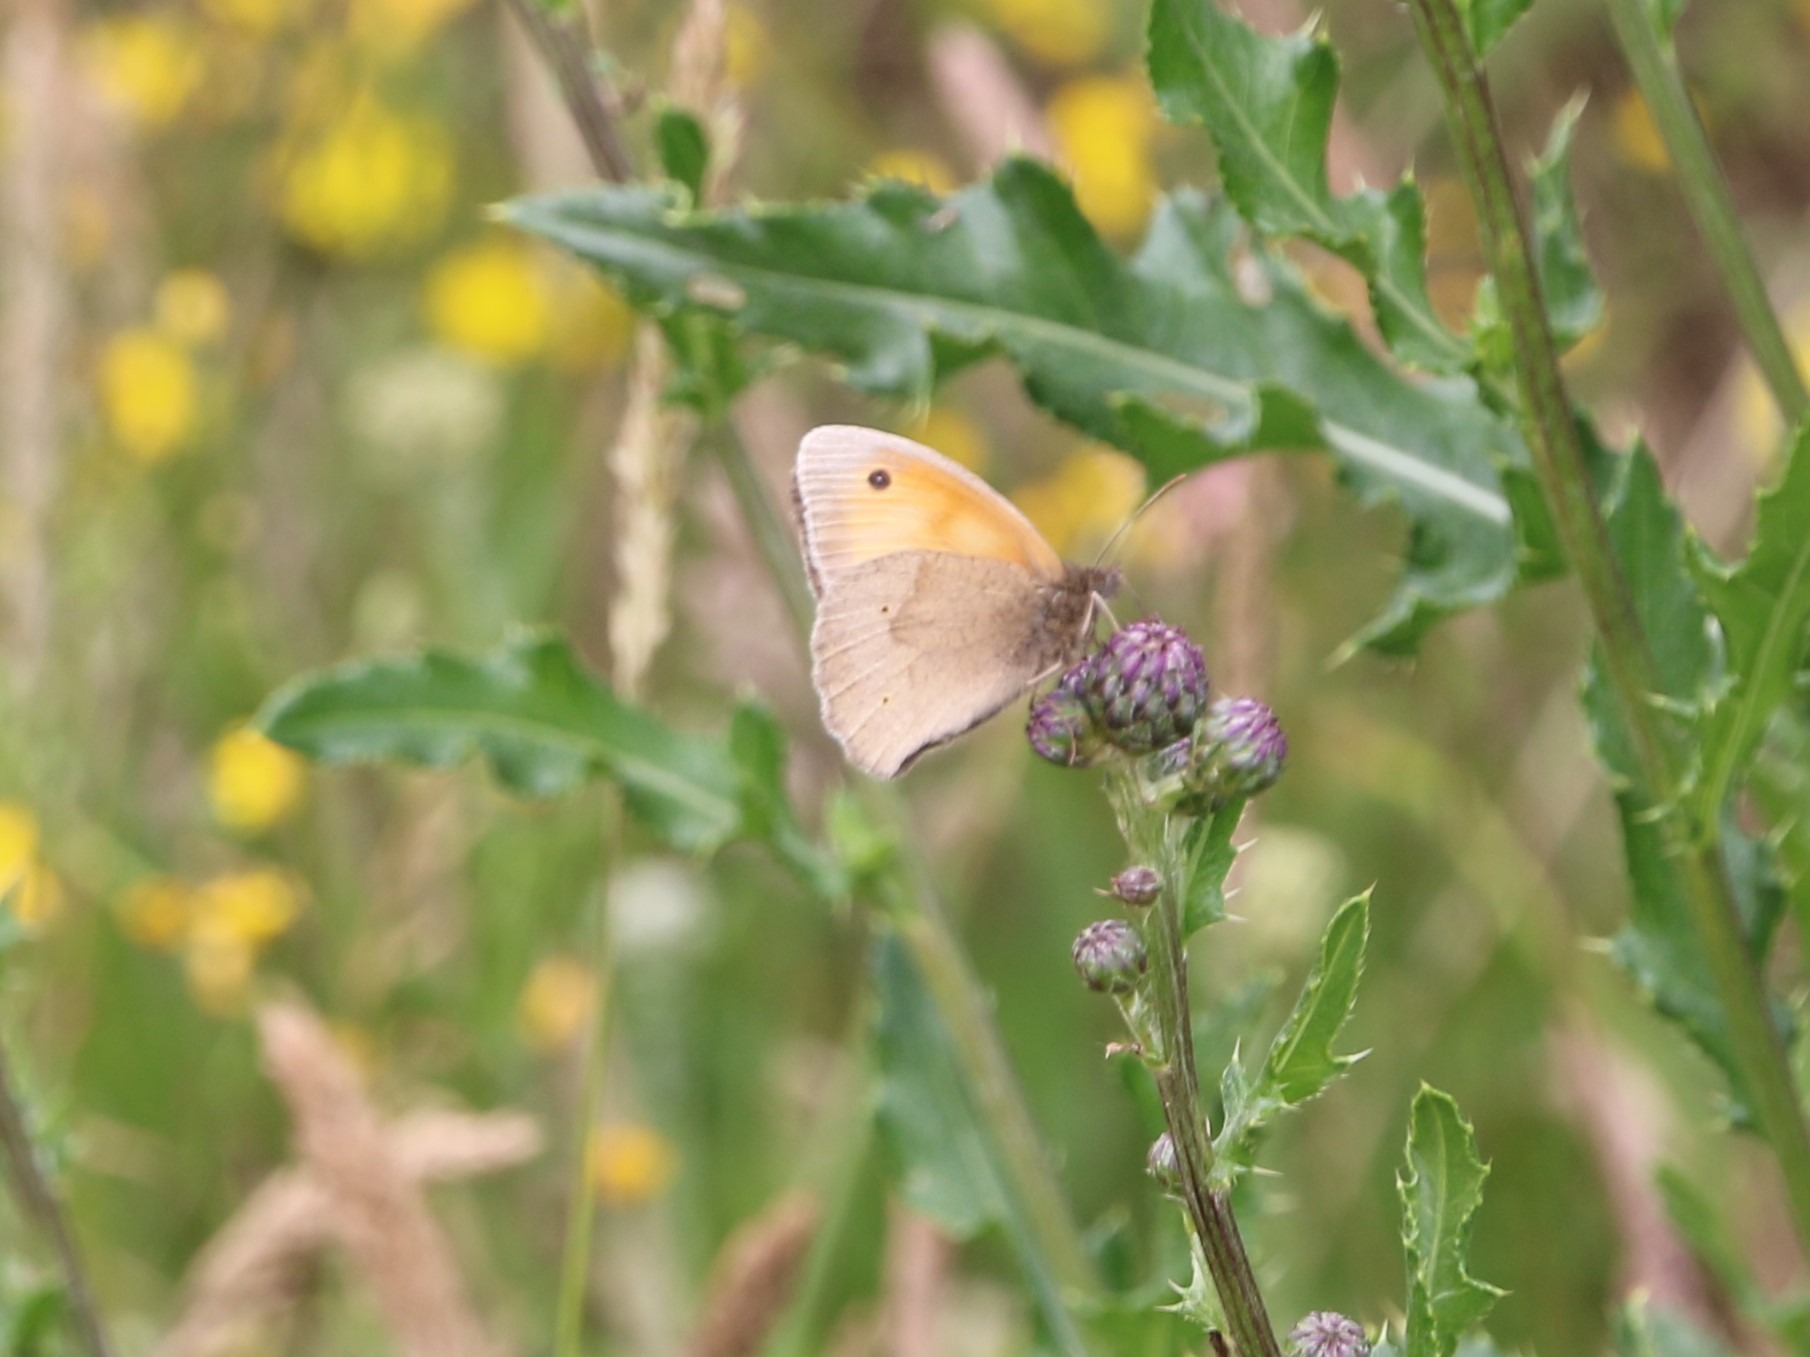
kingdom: Animalia
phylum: Arthropoda
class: Insecta
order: Lepidoptera
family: Nymphalidae
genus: Maniola
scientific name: Maniola jurtina
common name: Græsrandøje
